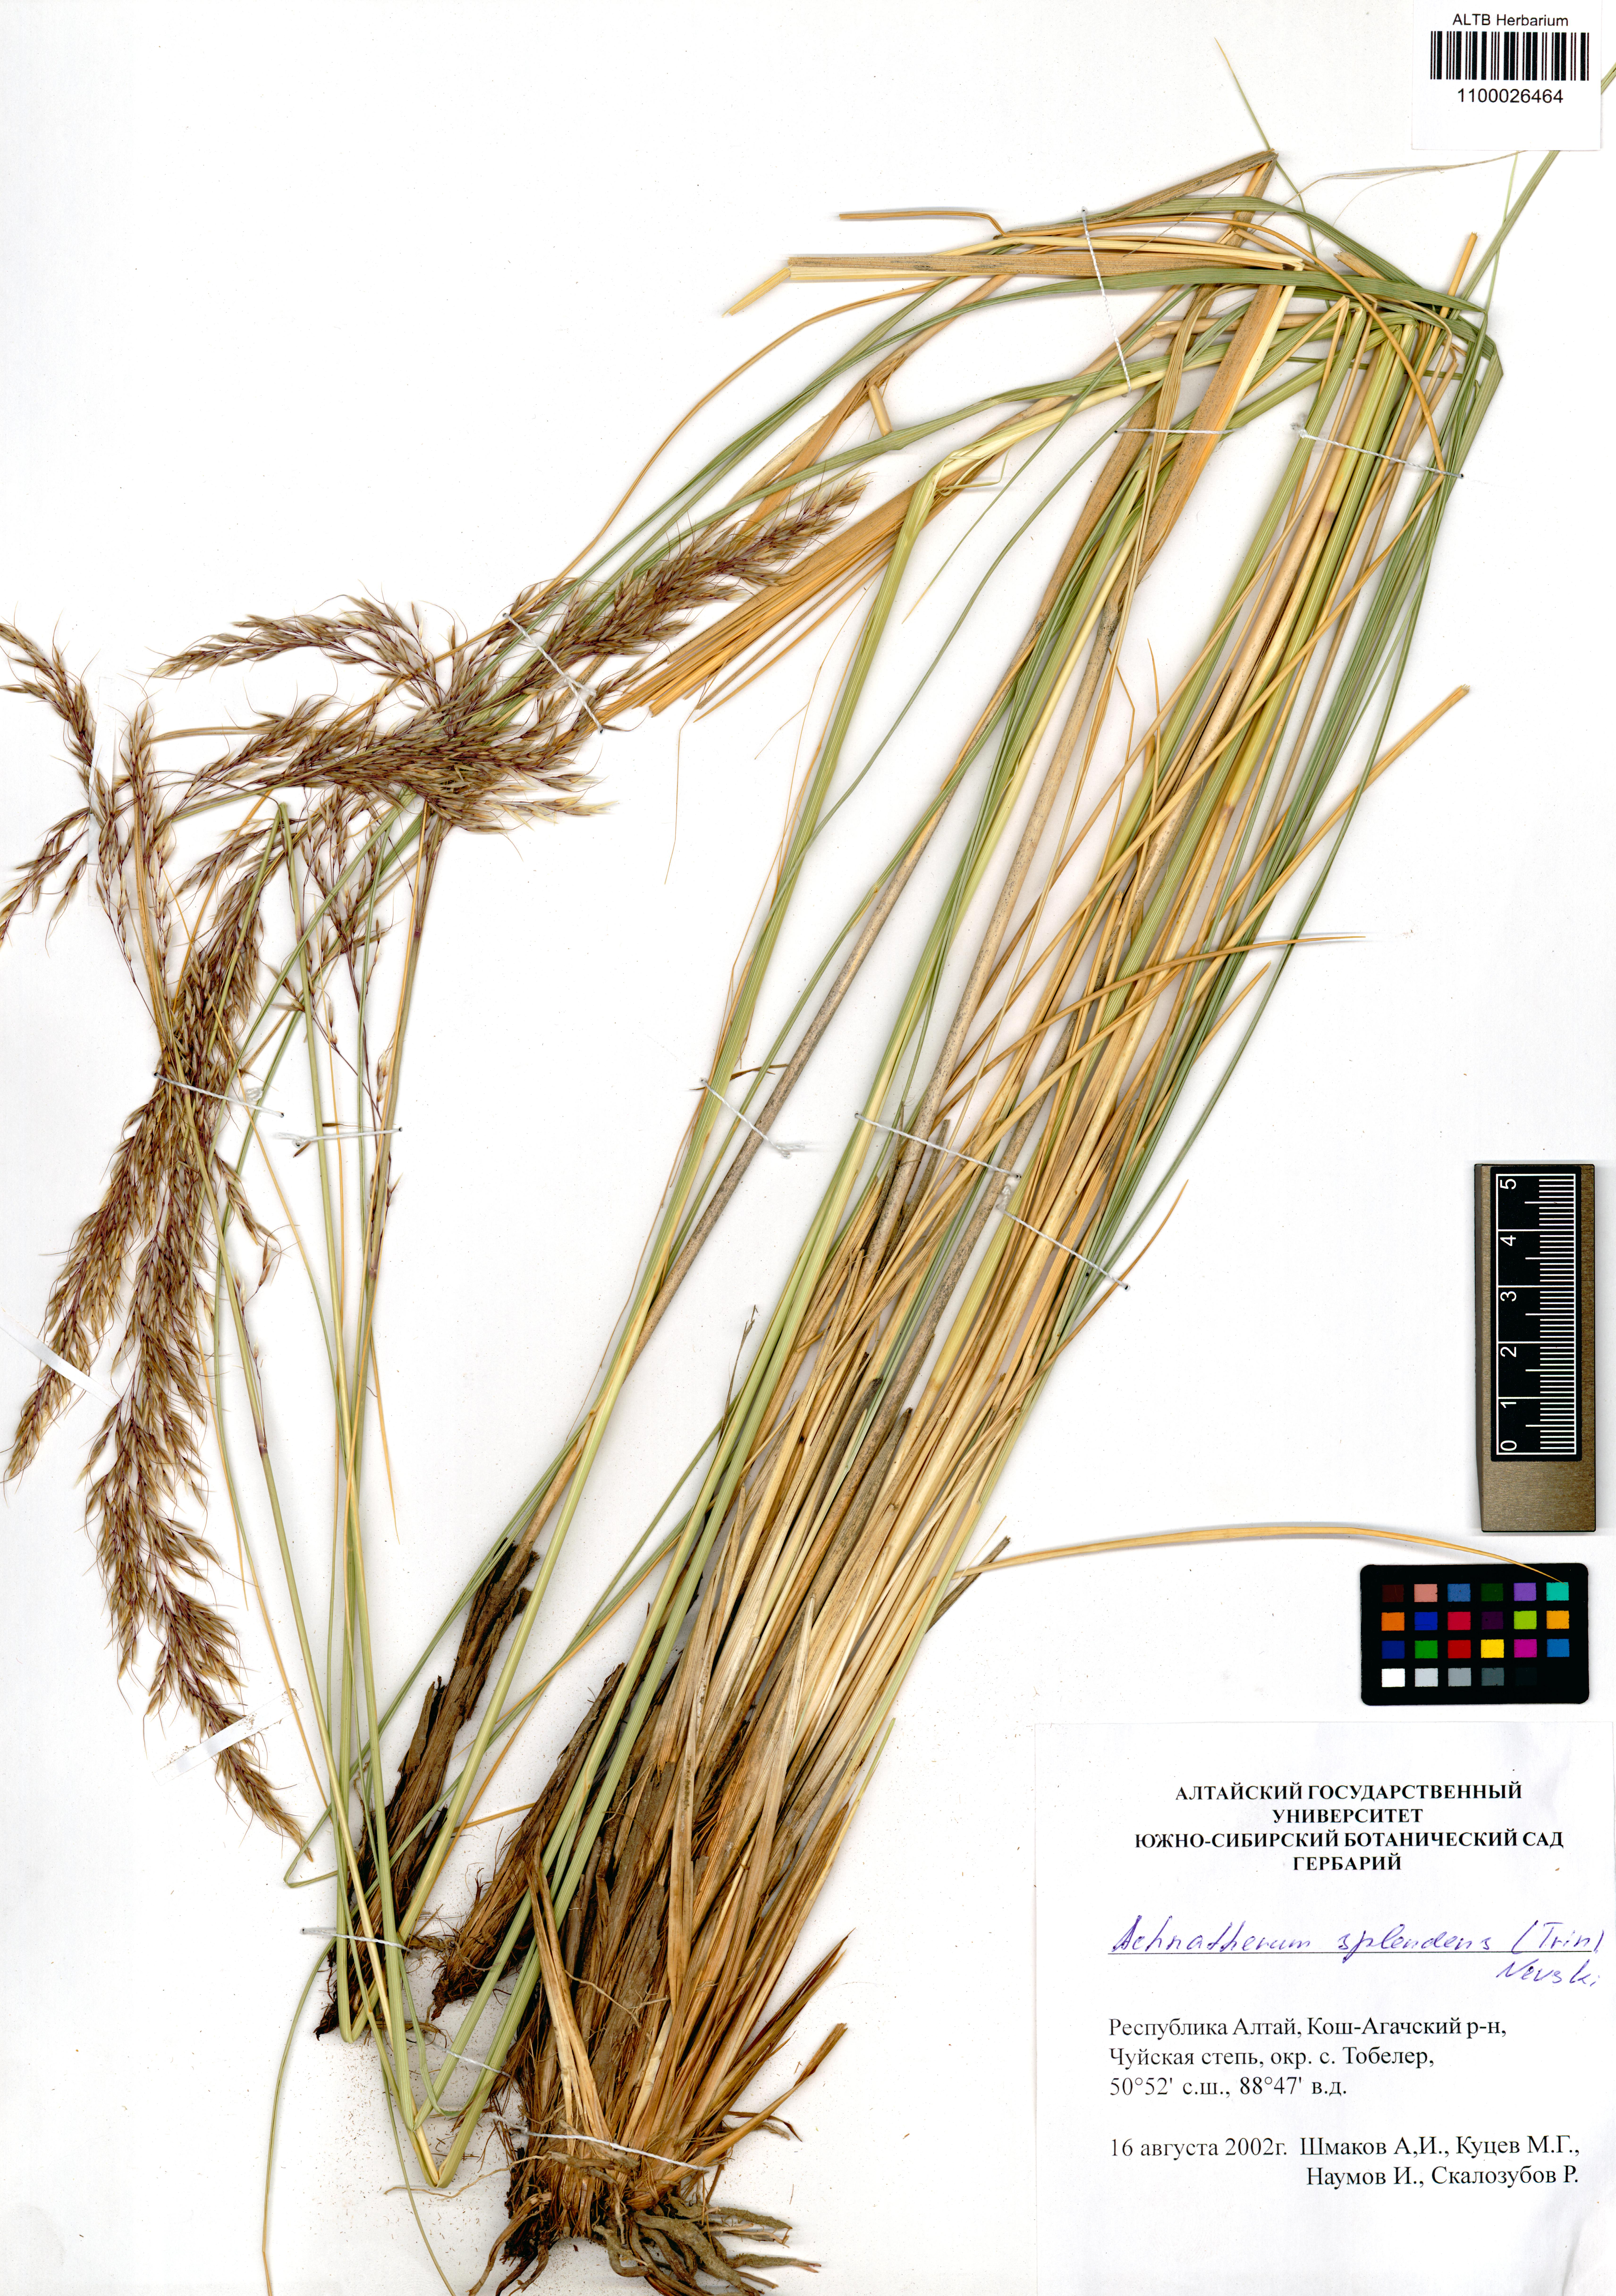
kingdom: Plantae
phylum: Tracheophyta
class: Liliopsida
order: Poales
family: Poaceae
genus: Neotrinia
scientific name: Neotrinia splendens
